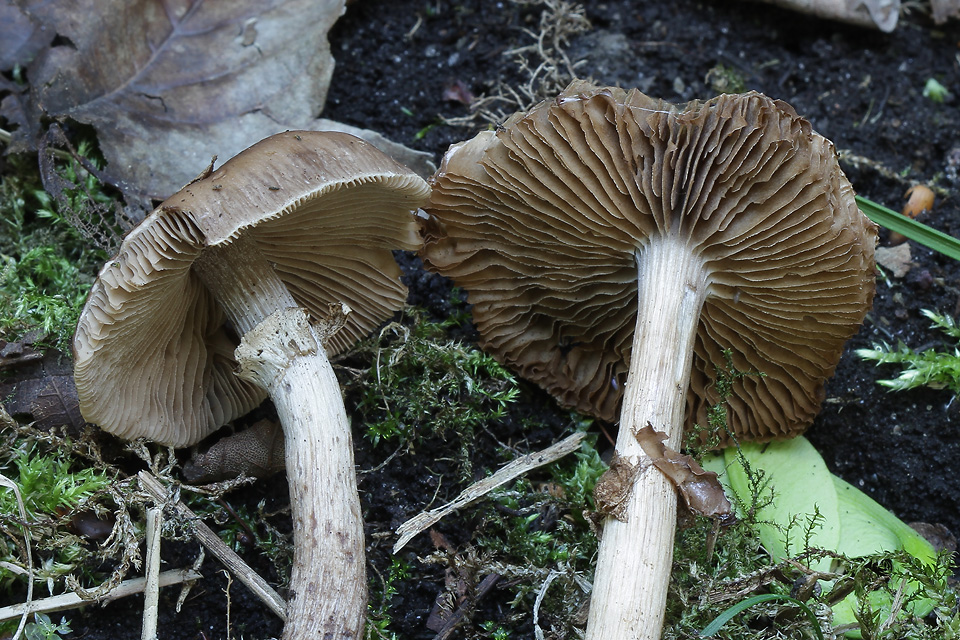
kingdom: Fungi
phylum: Basidiomycota
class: Agaricomycetes
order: Agaricales
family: Tubariaceae
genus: Cyclocybe
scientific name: Cyclocybe erebia
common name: mørk agerhat
